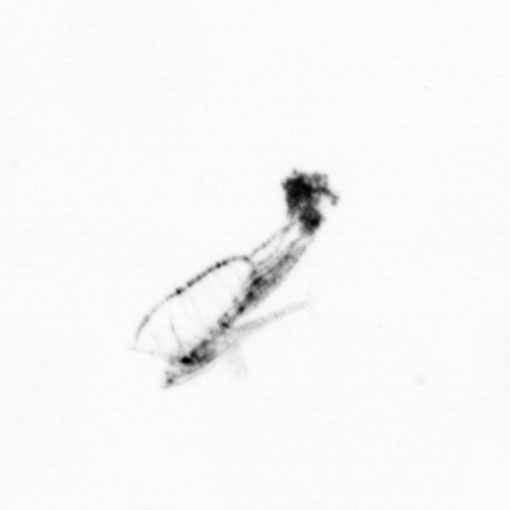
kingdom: Animalia
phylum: Arthropoda
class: Copepoda
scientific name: Copepoda
